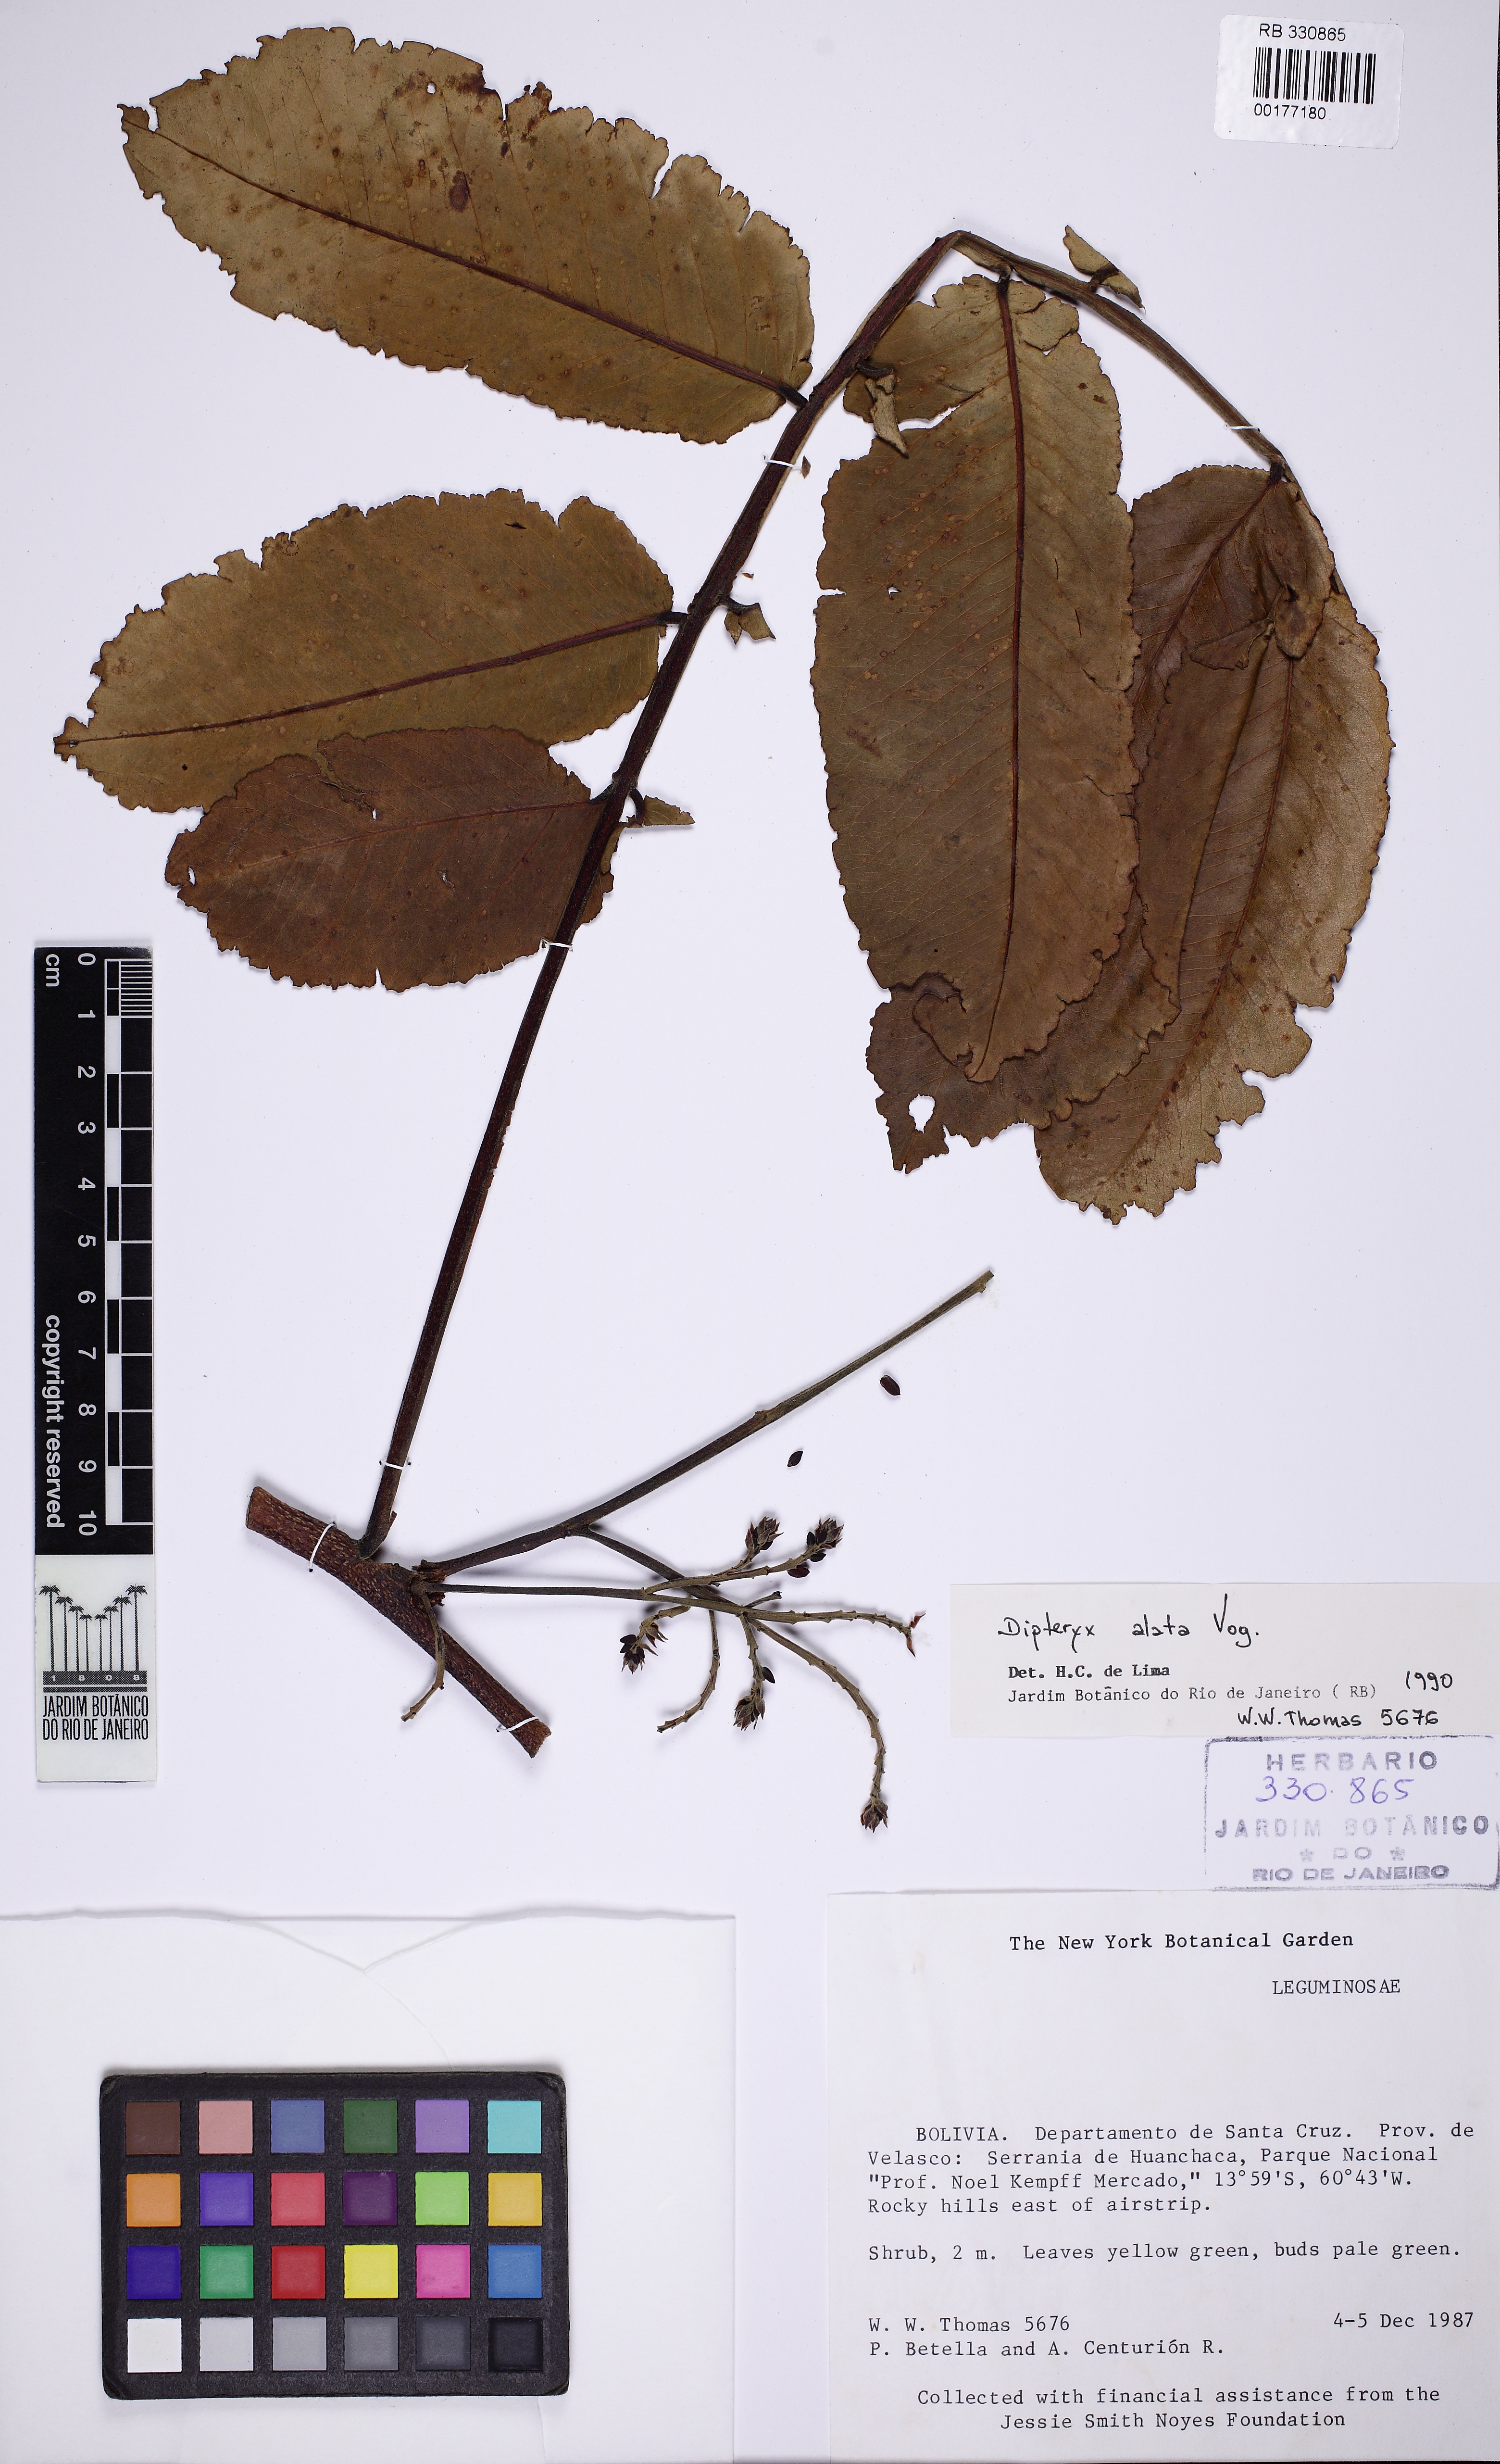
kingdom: Plantae
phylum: Tracheophyta
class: Magnoliopsida
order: Fabales
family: Fabaceae
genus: Dipteryx
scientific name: Dipteryx alata
